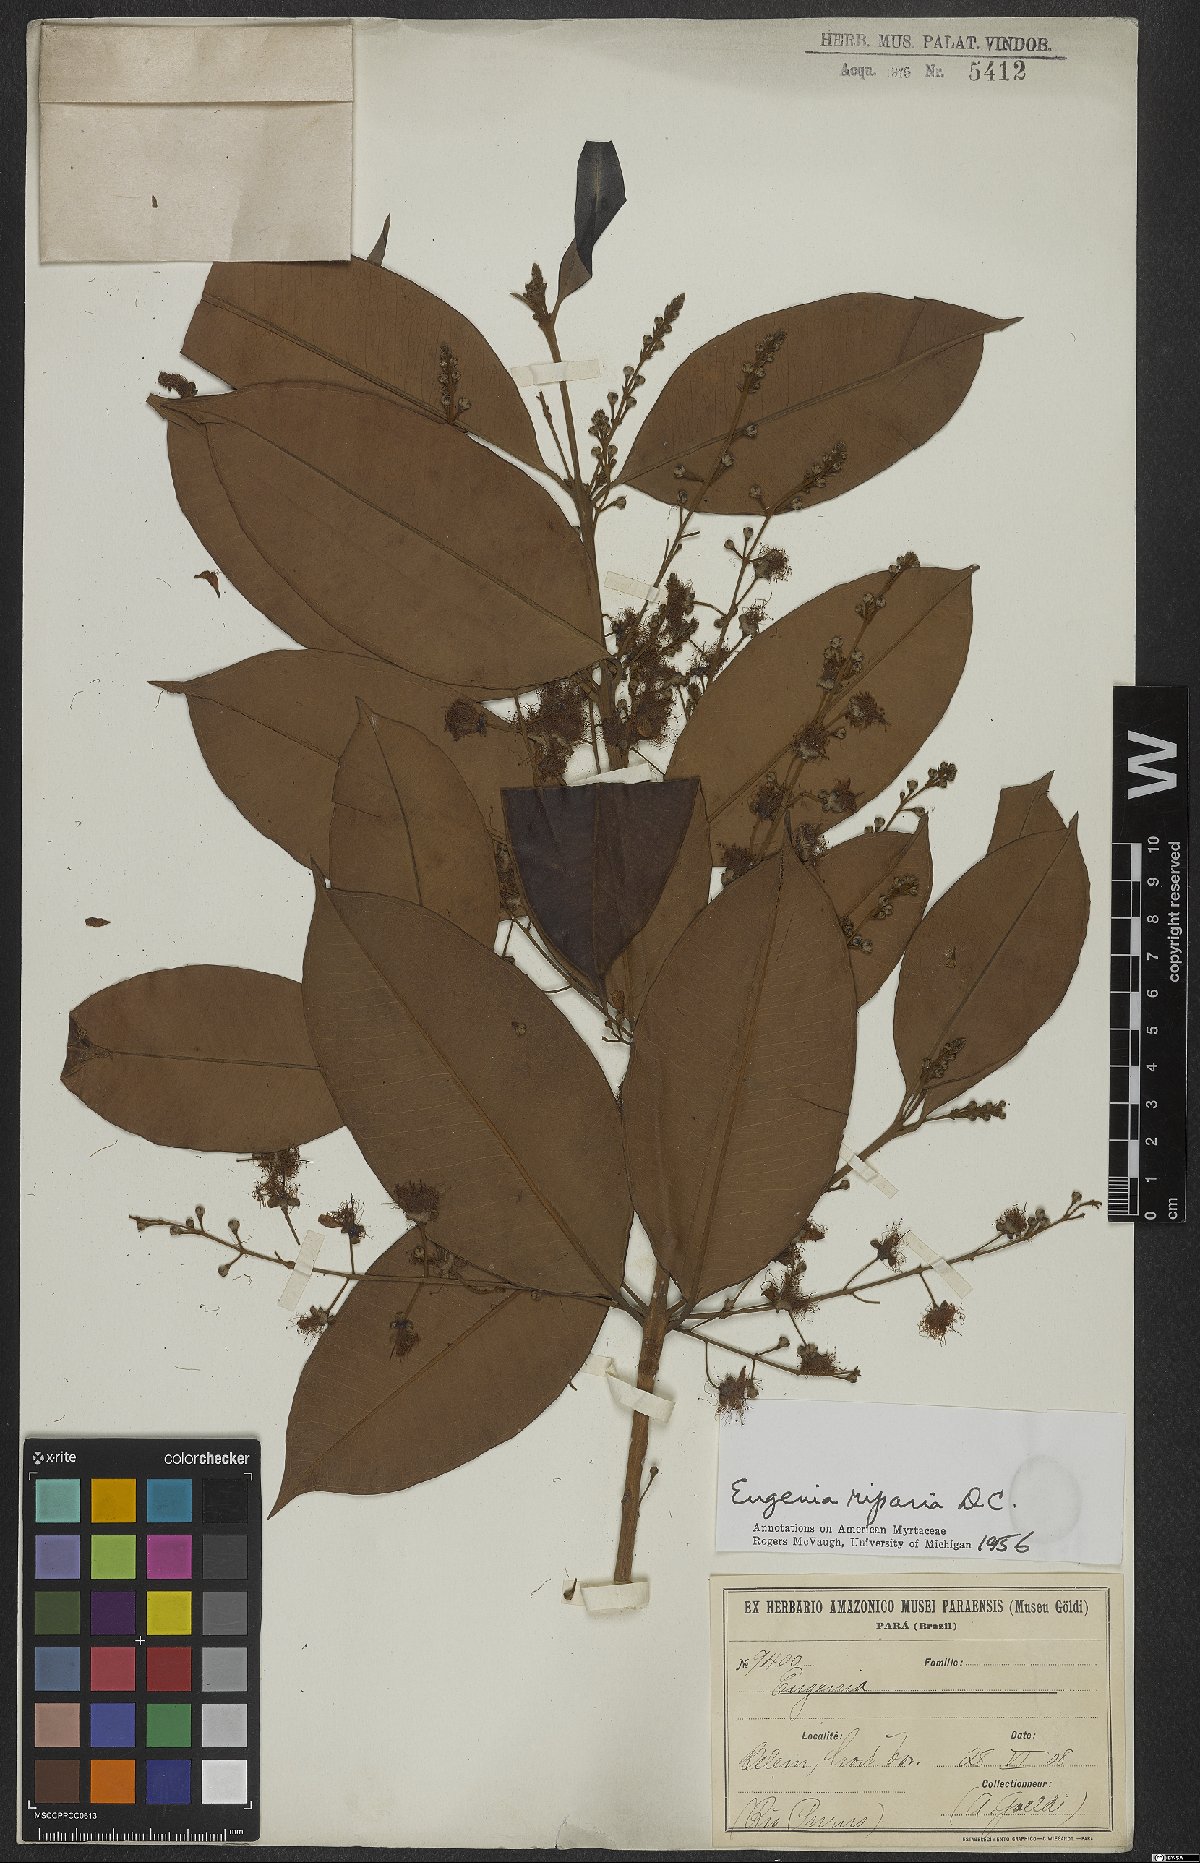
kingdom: Plantae
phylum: Tracheophyta
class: Magnoliopsida
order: Myrtales
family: Myrtaceae
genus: Eugenia
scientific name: Eugenia muricata
